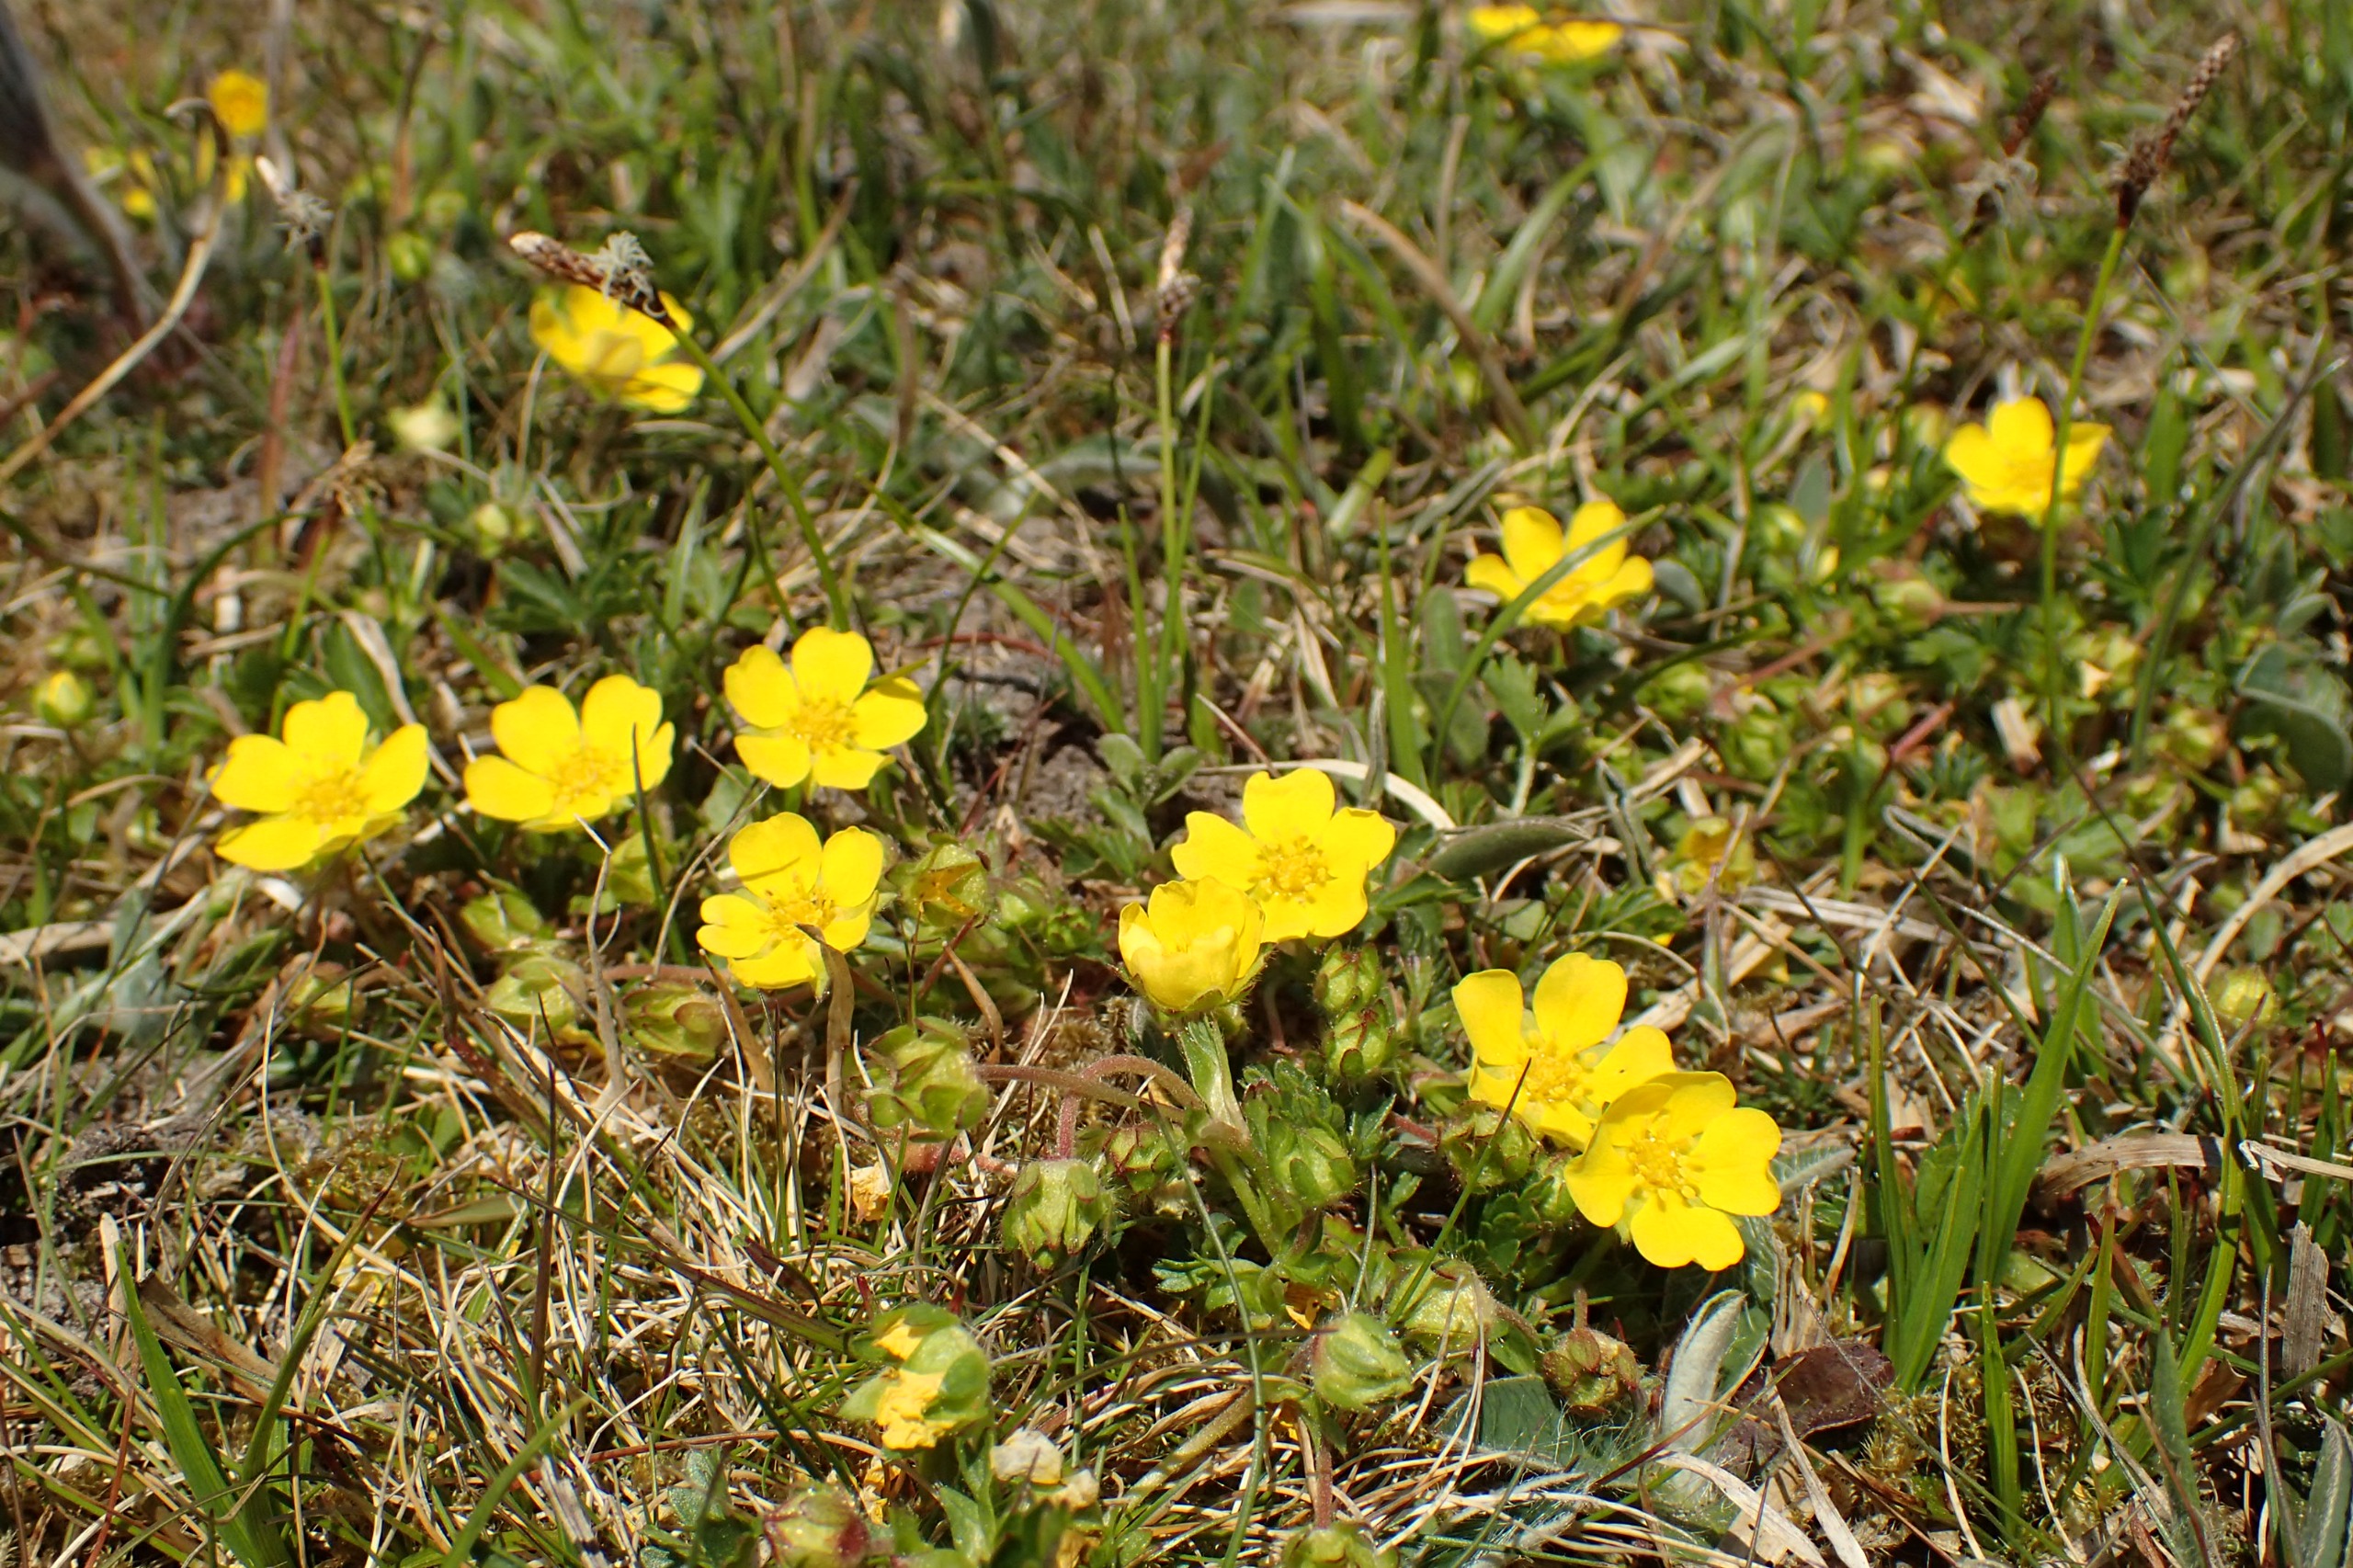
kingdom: Plantae
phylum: Tracheophyta
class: Magnoliopsida
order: Rosales
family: Rosaceae
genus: Potentilla
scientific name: Potentilla verna
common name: Vår-potentil
